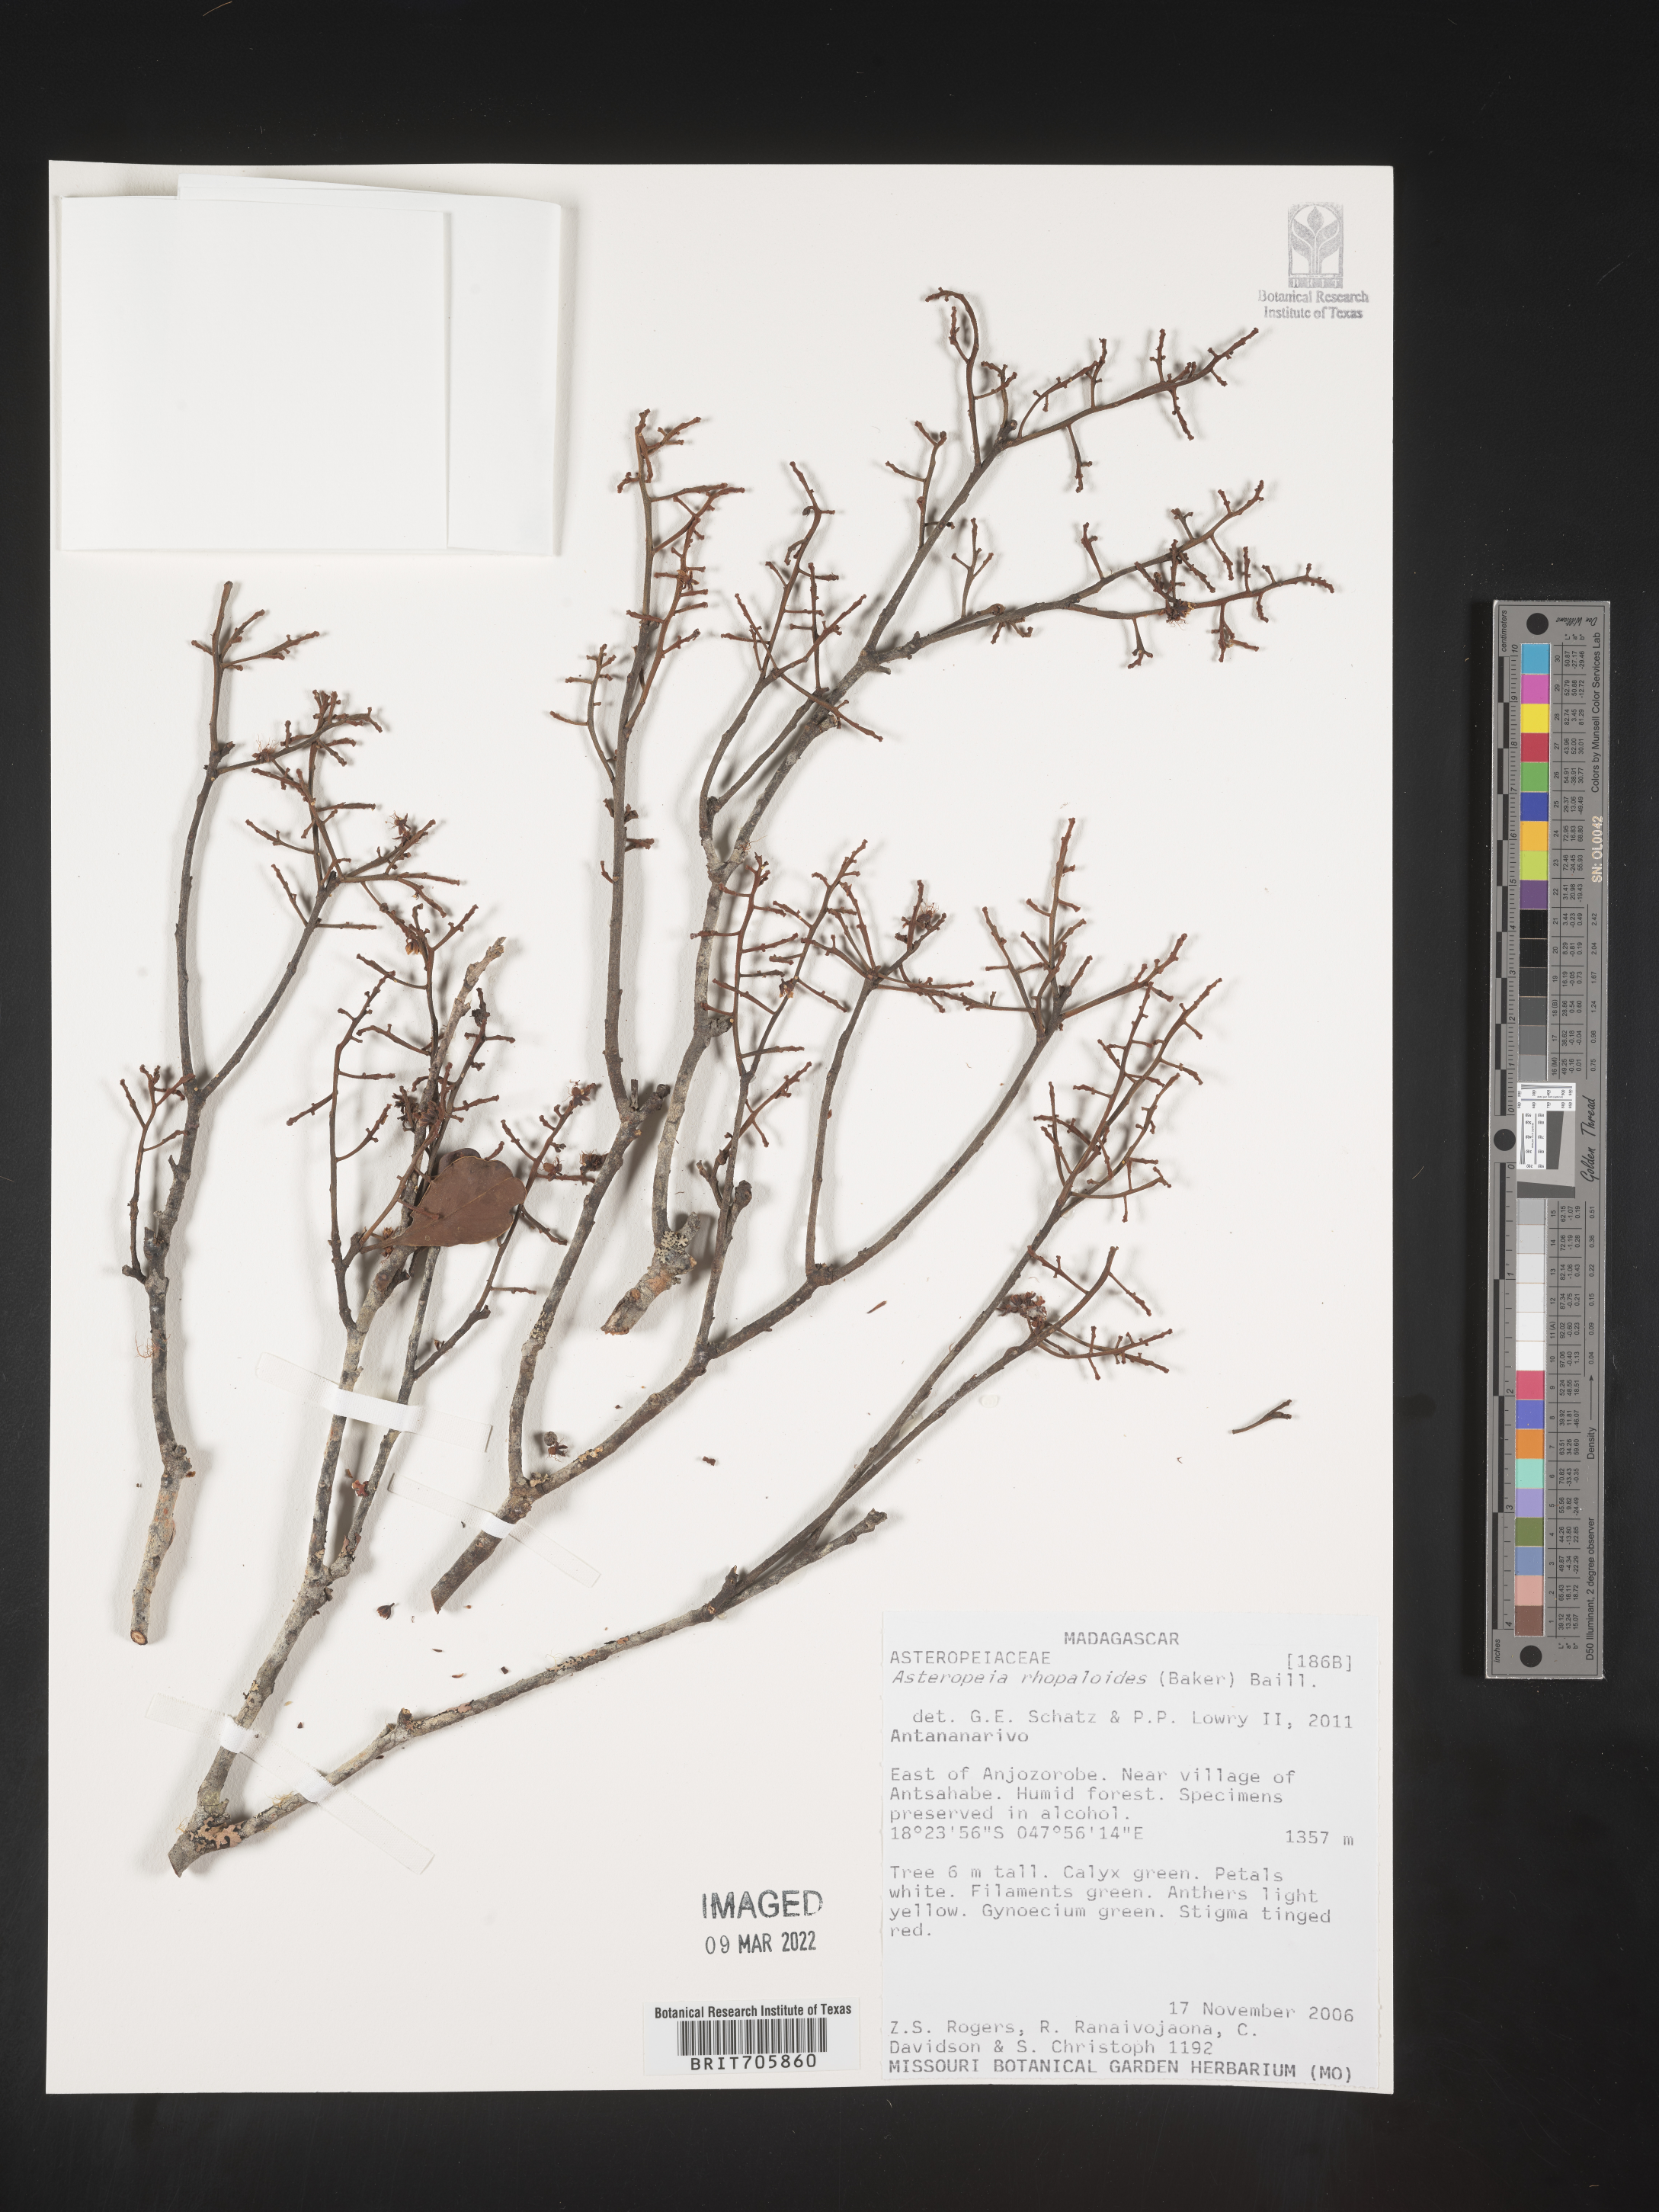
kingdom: Plantae
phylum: Tracheophyta
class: Magnoliopsida
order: Caryophyllales
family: Asteropeiaceae
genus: Asteropeia
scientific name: Asteropeia
